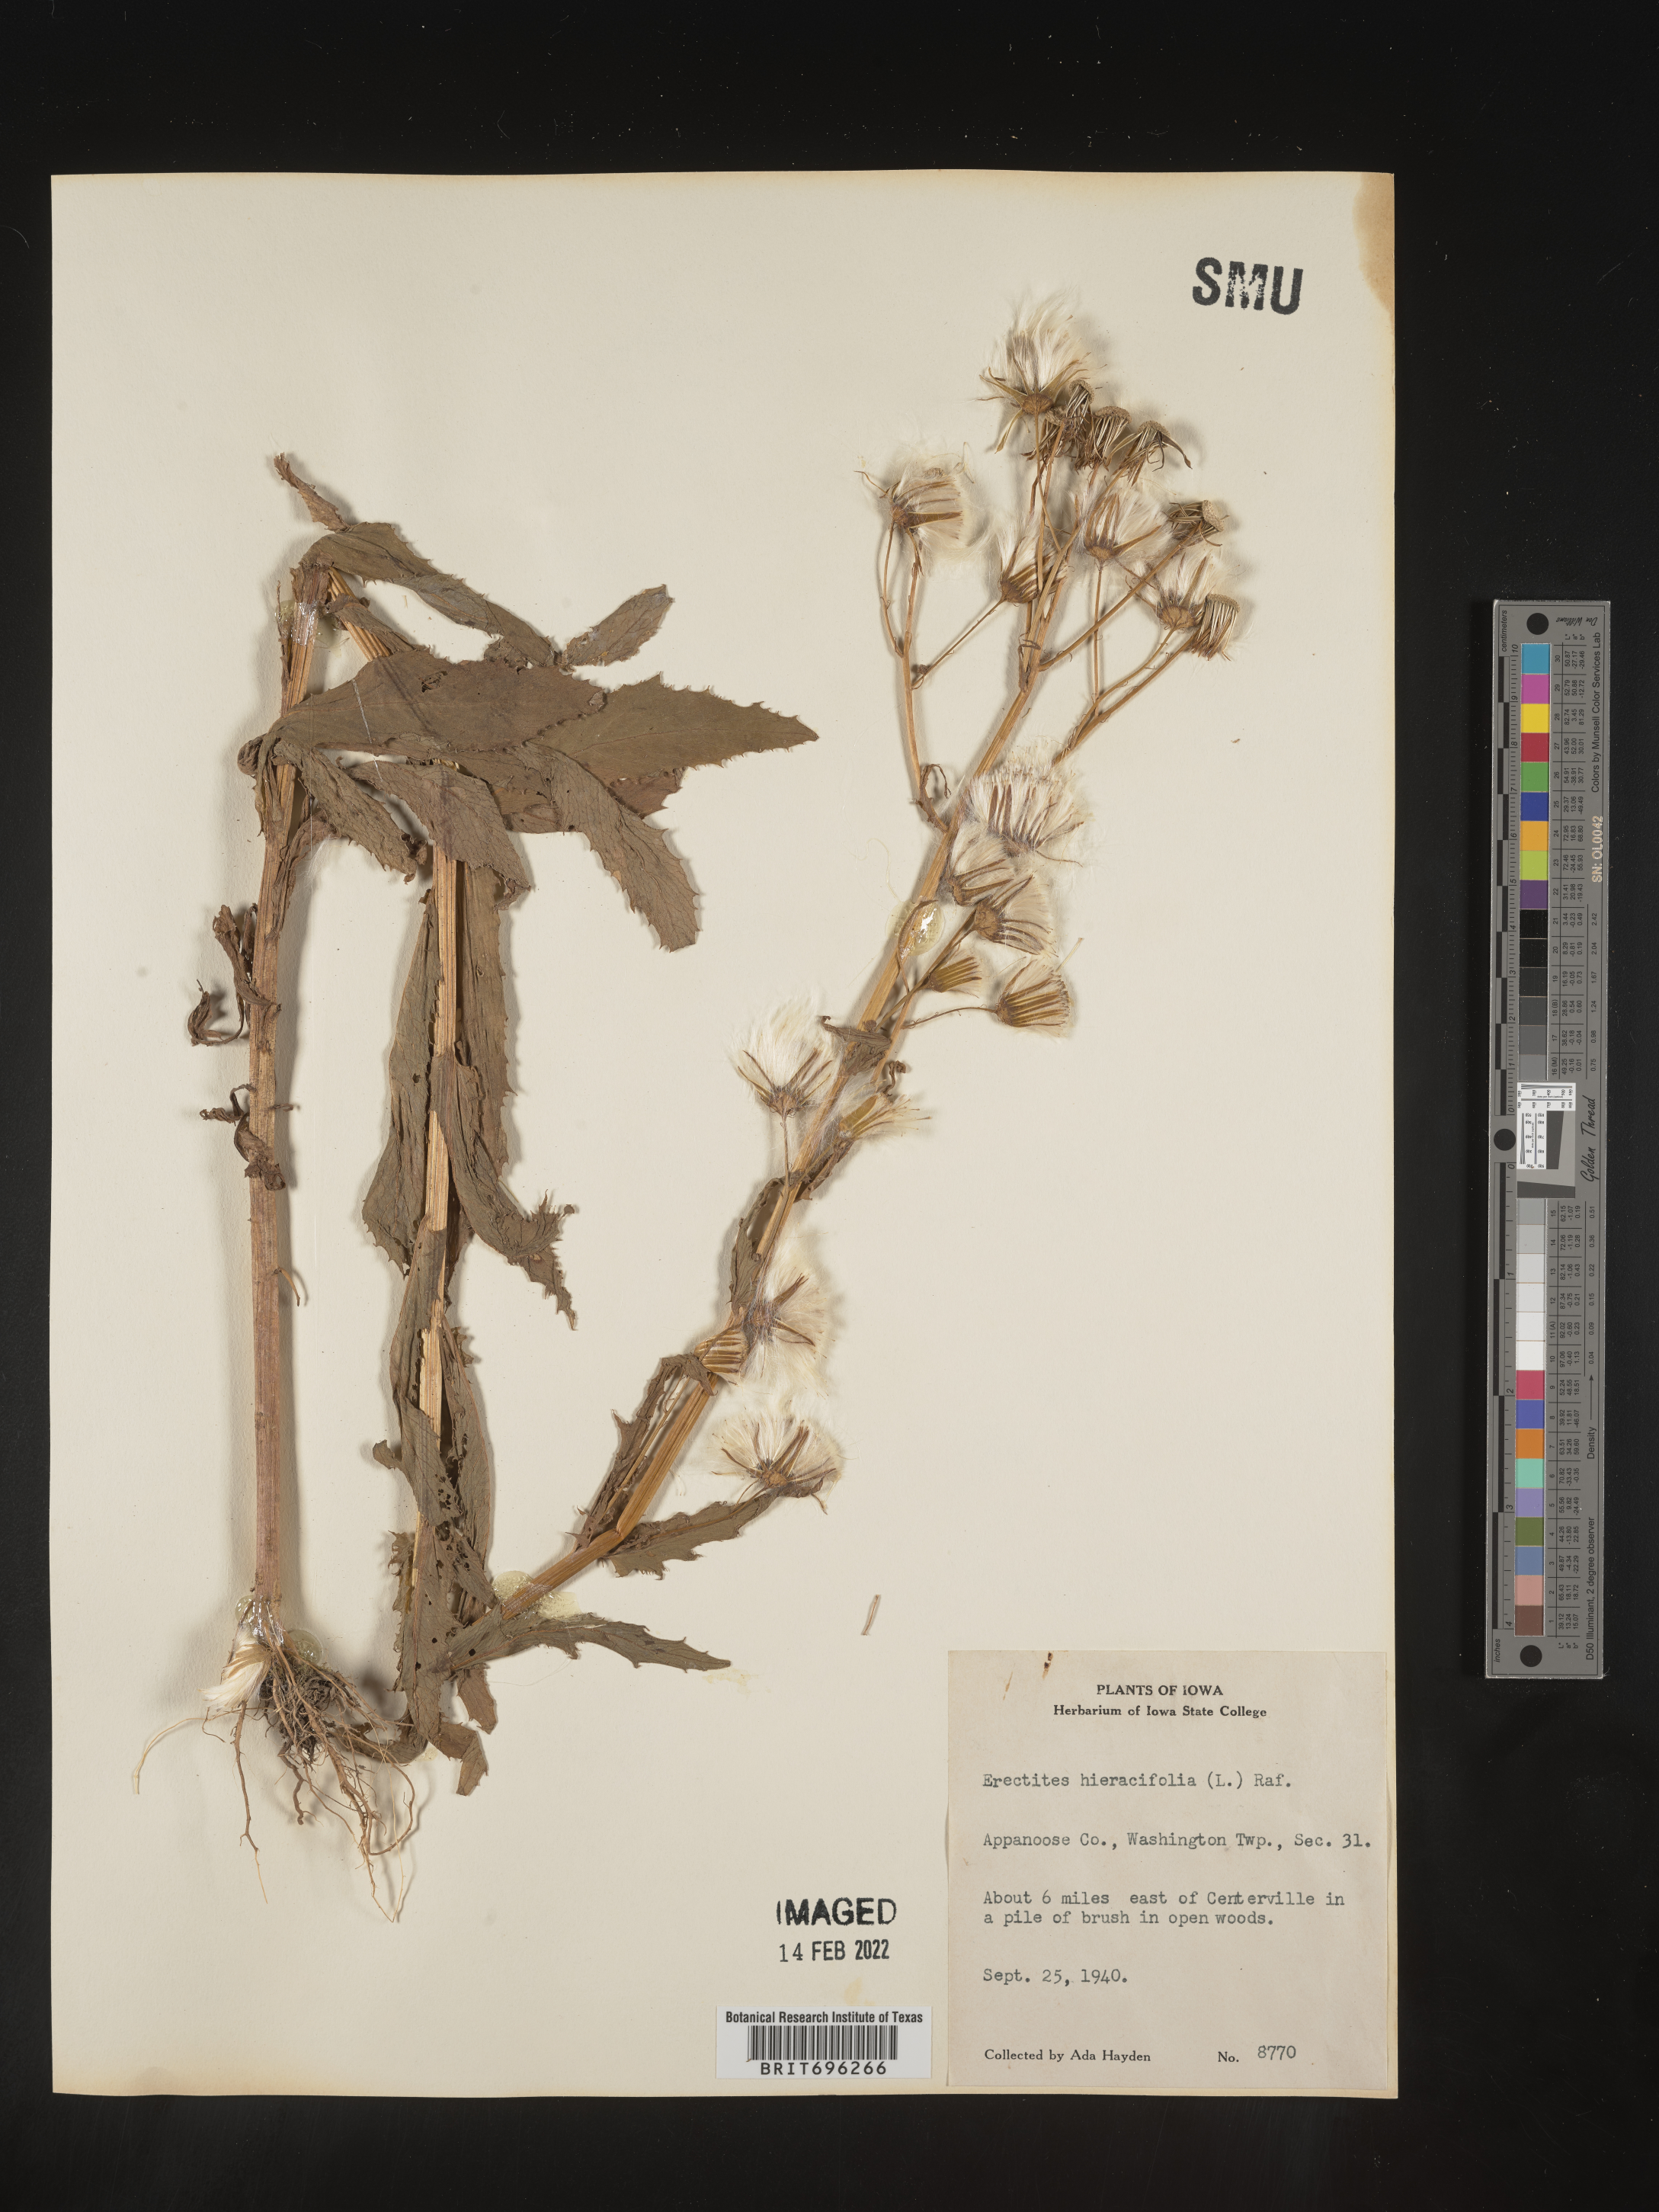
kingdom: Plantae
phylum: Tracheophyta
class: Magnoliopsida
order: Asterales
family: Asteraceae
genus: Erechtites
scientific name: Erechtites hieraciifolius
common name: American burnweed
